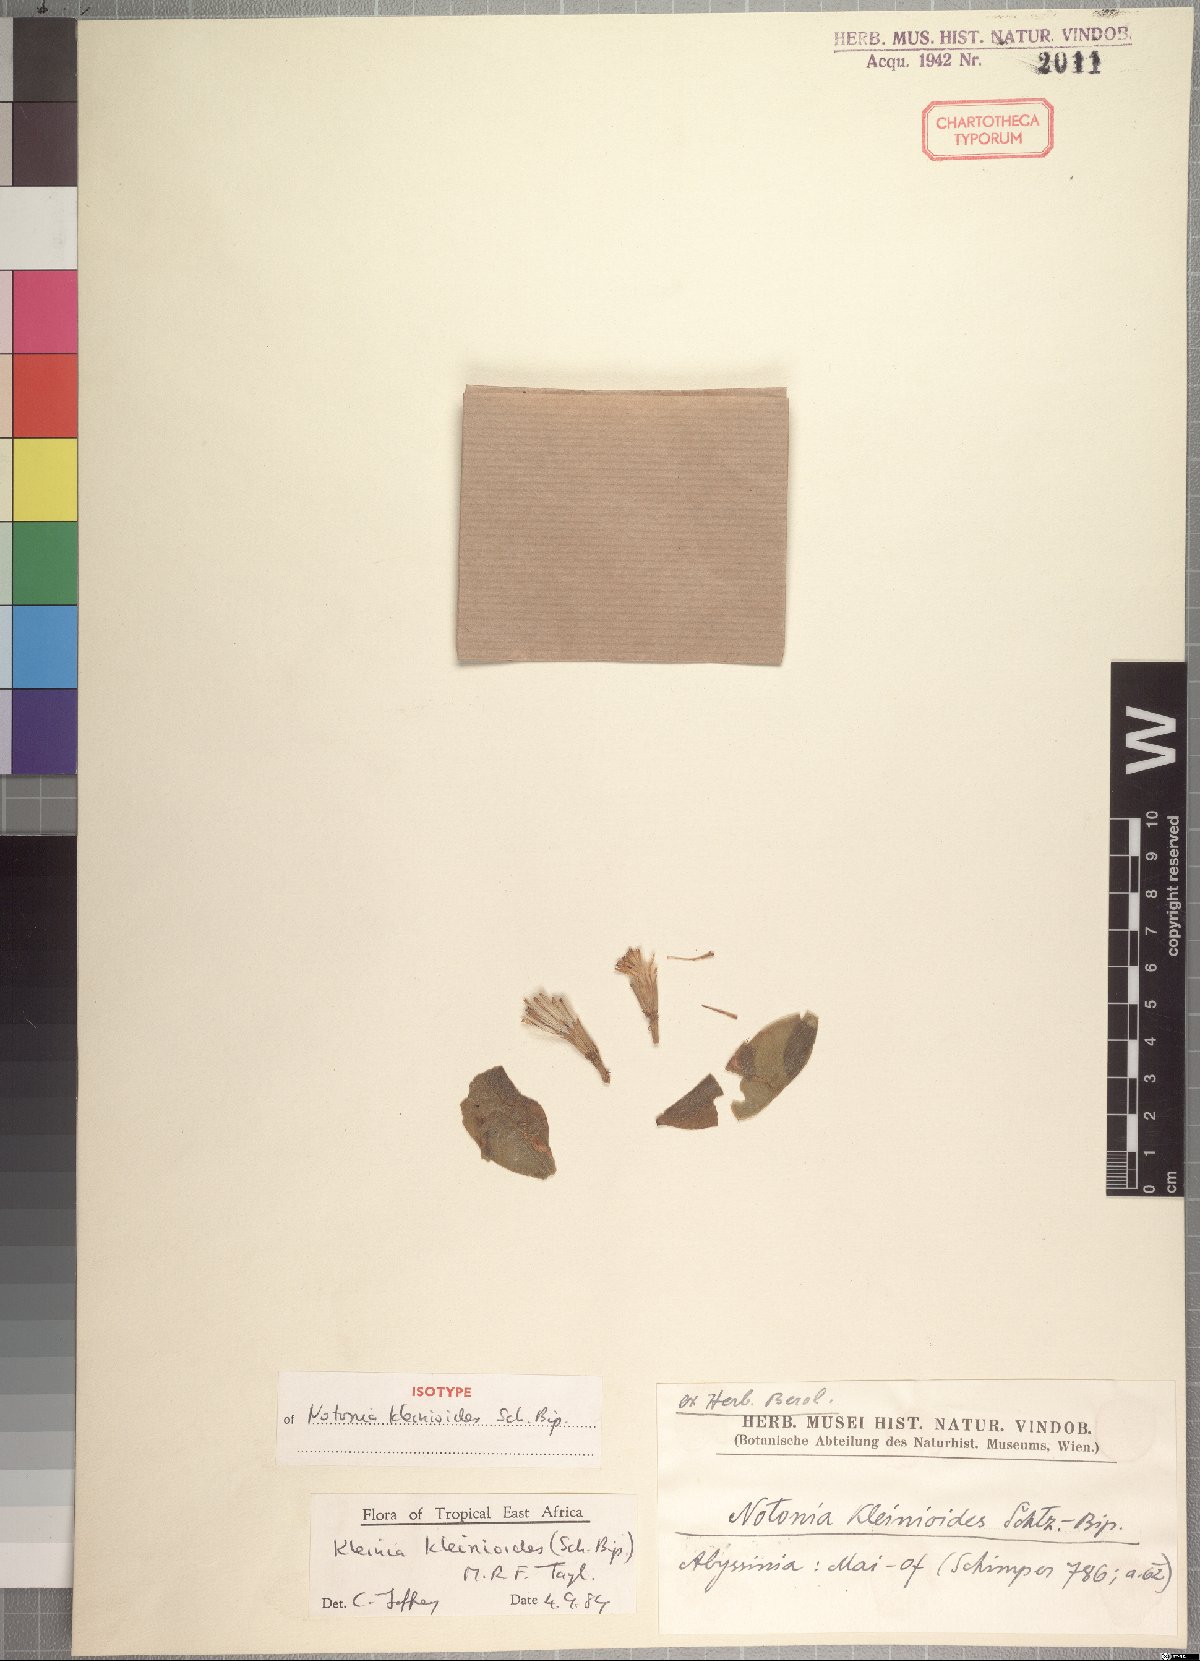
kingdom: Plantae
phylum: Tracheophyta
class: Magnoliopsida
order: Asterales
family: Asteraceae
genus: Kleinia
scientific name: Kleinia kleinioides
